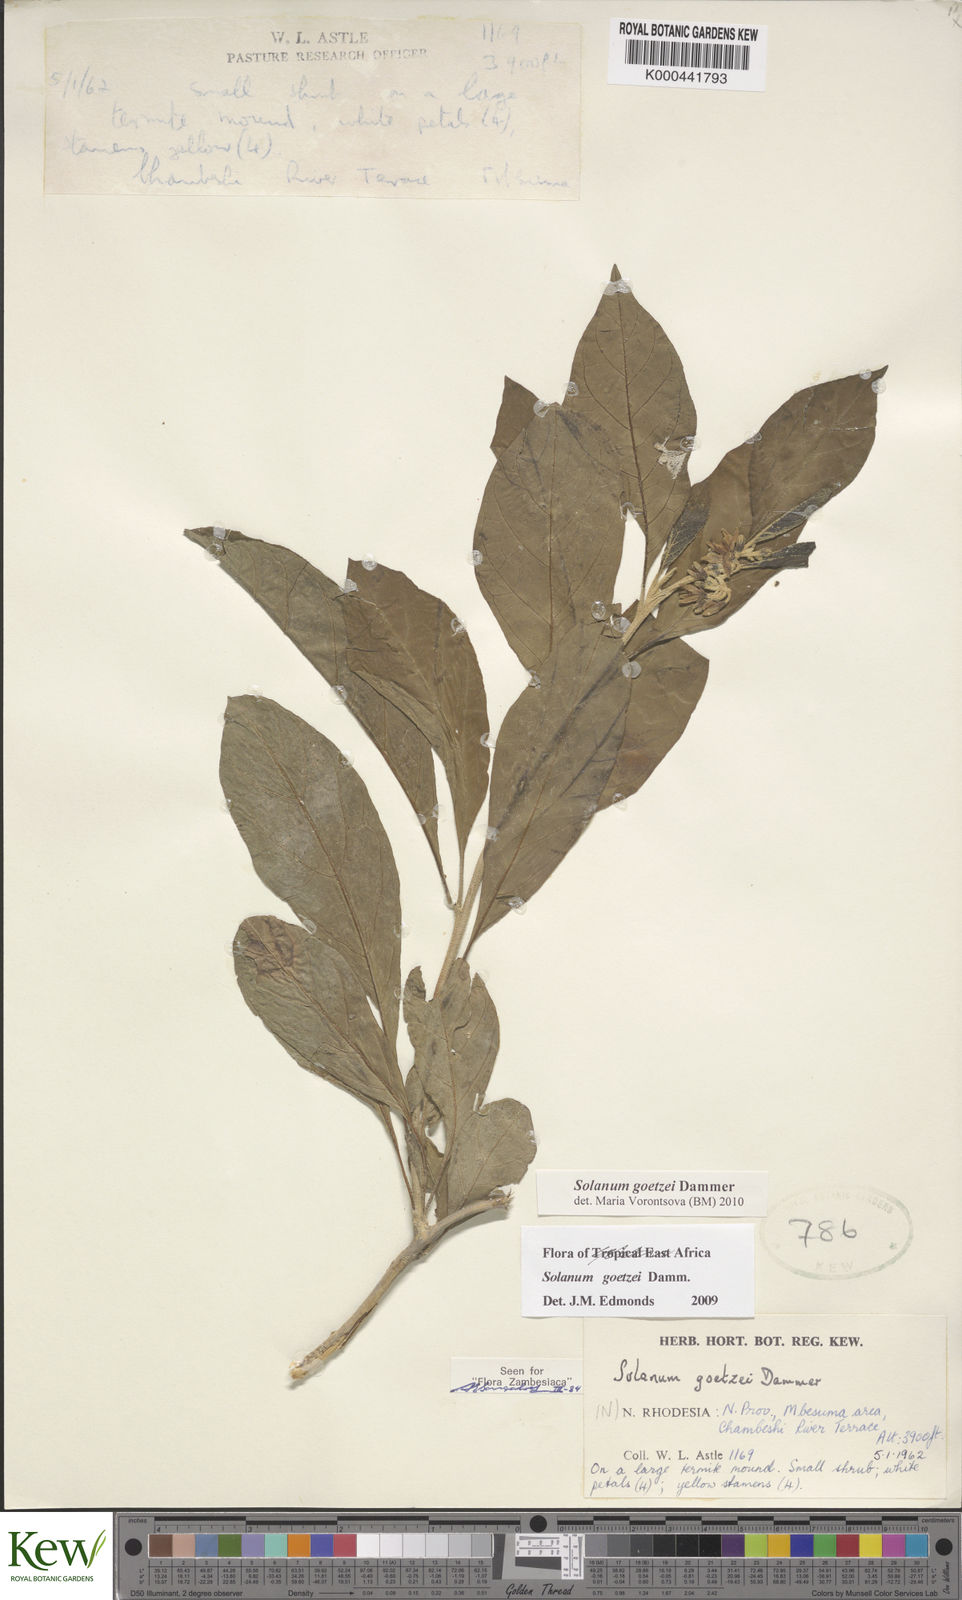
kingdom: Plantae
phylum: Tracheophyta
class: Magnoliopsida
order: Solanales
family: Solanaceae
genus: Solanum
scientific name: Solanum goetzei
